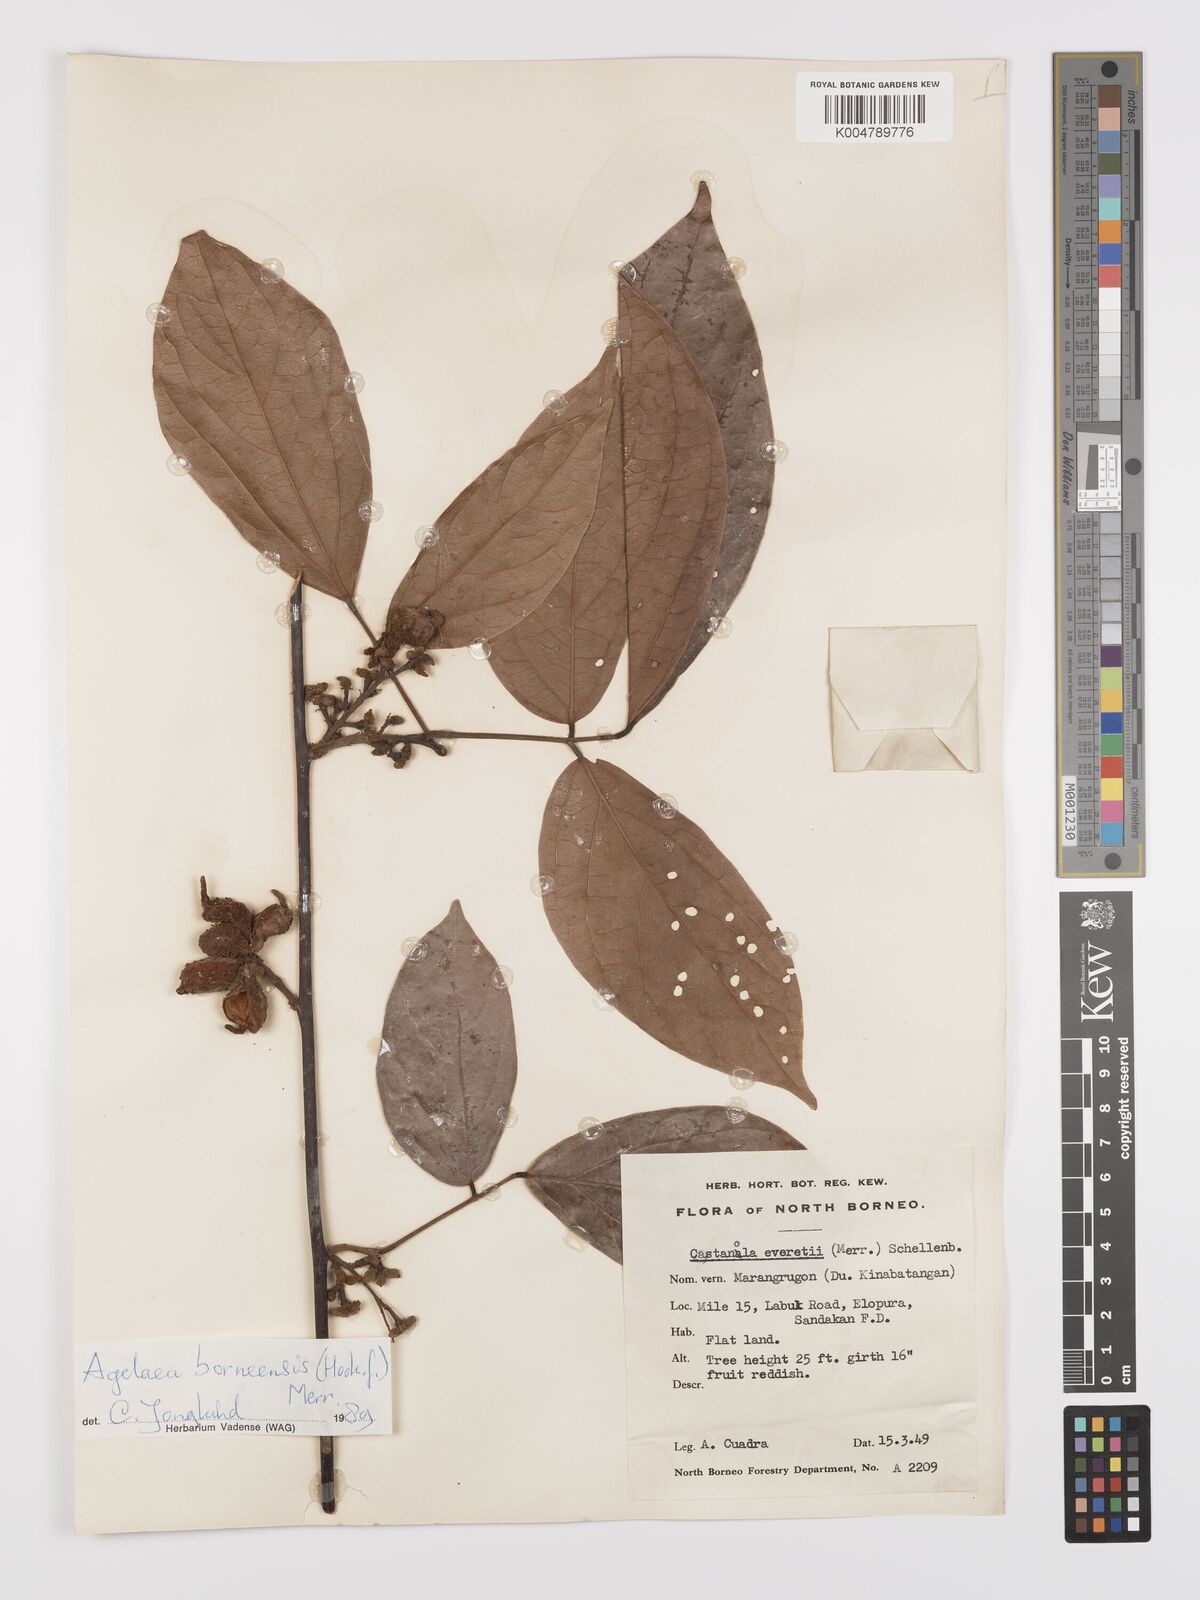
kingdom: Plantae
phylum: Tracheophyta
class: Magnoliopsida
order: Oxalidales
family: Connaraceae
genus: Agelaea
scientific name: Agelaea borneensis
